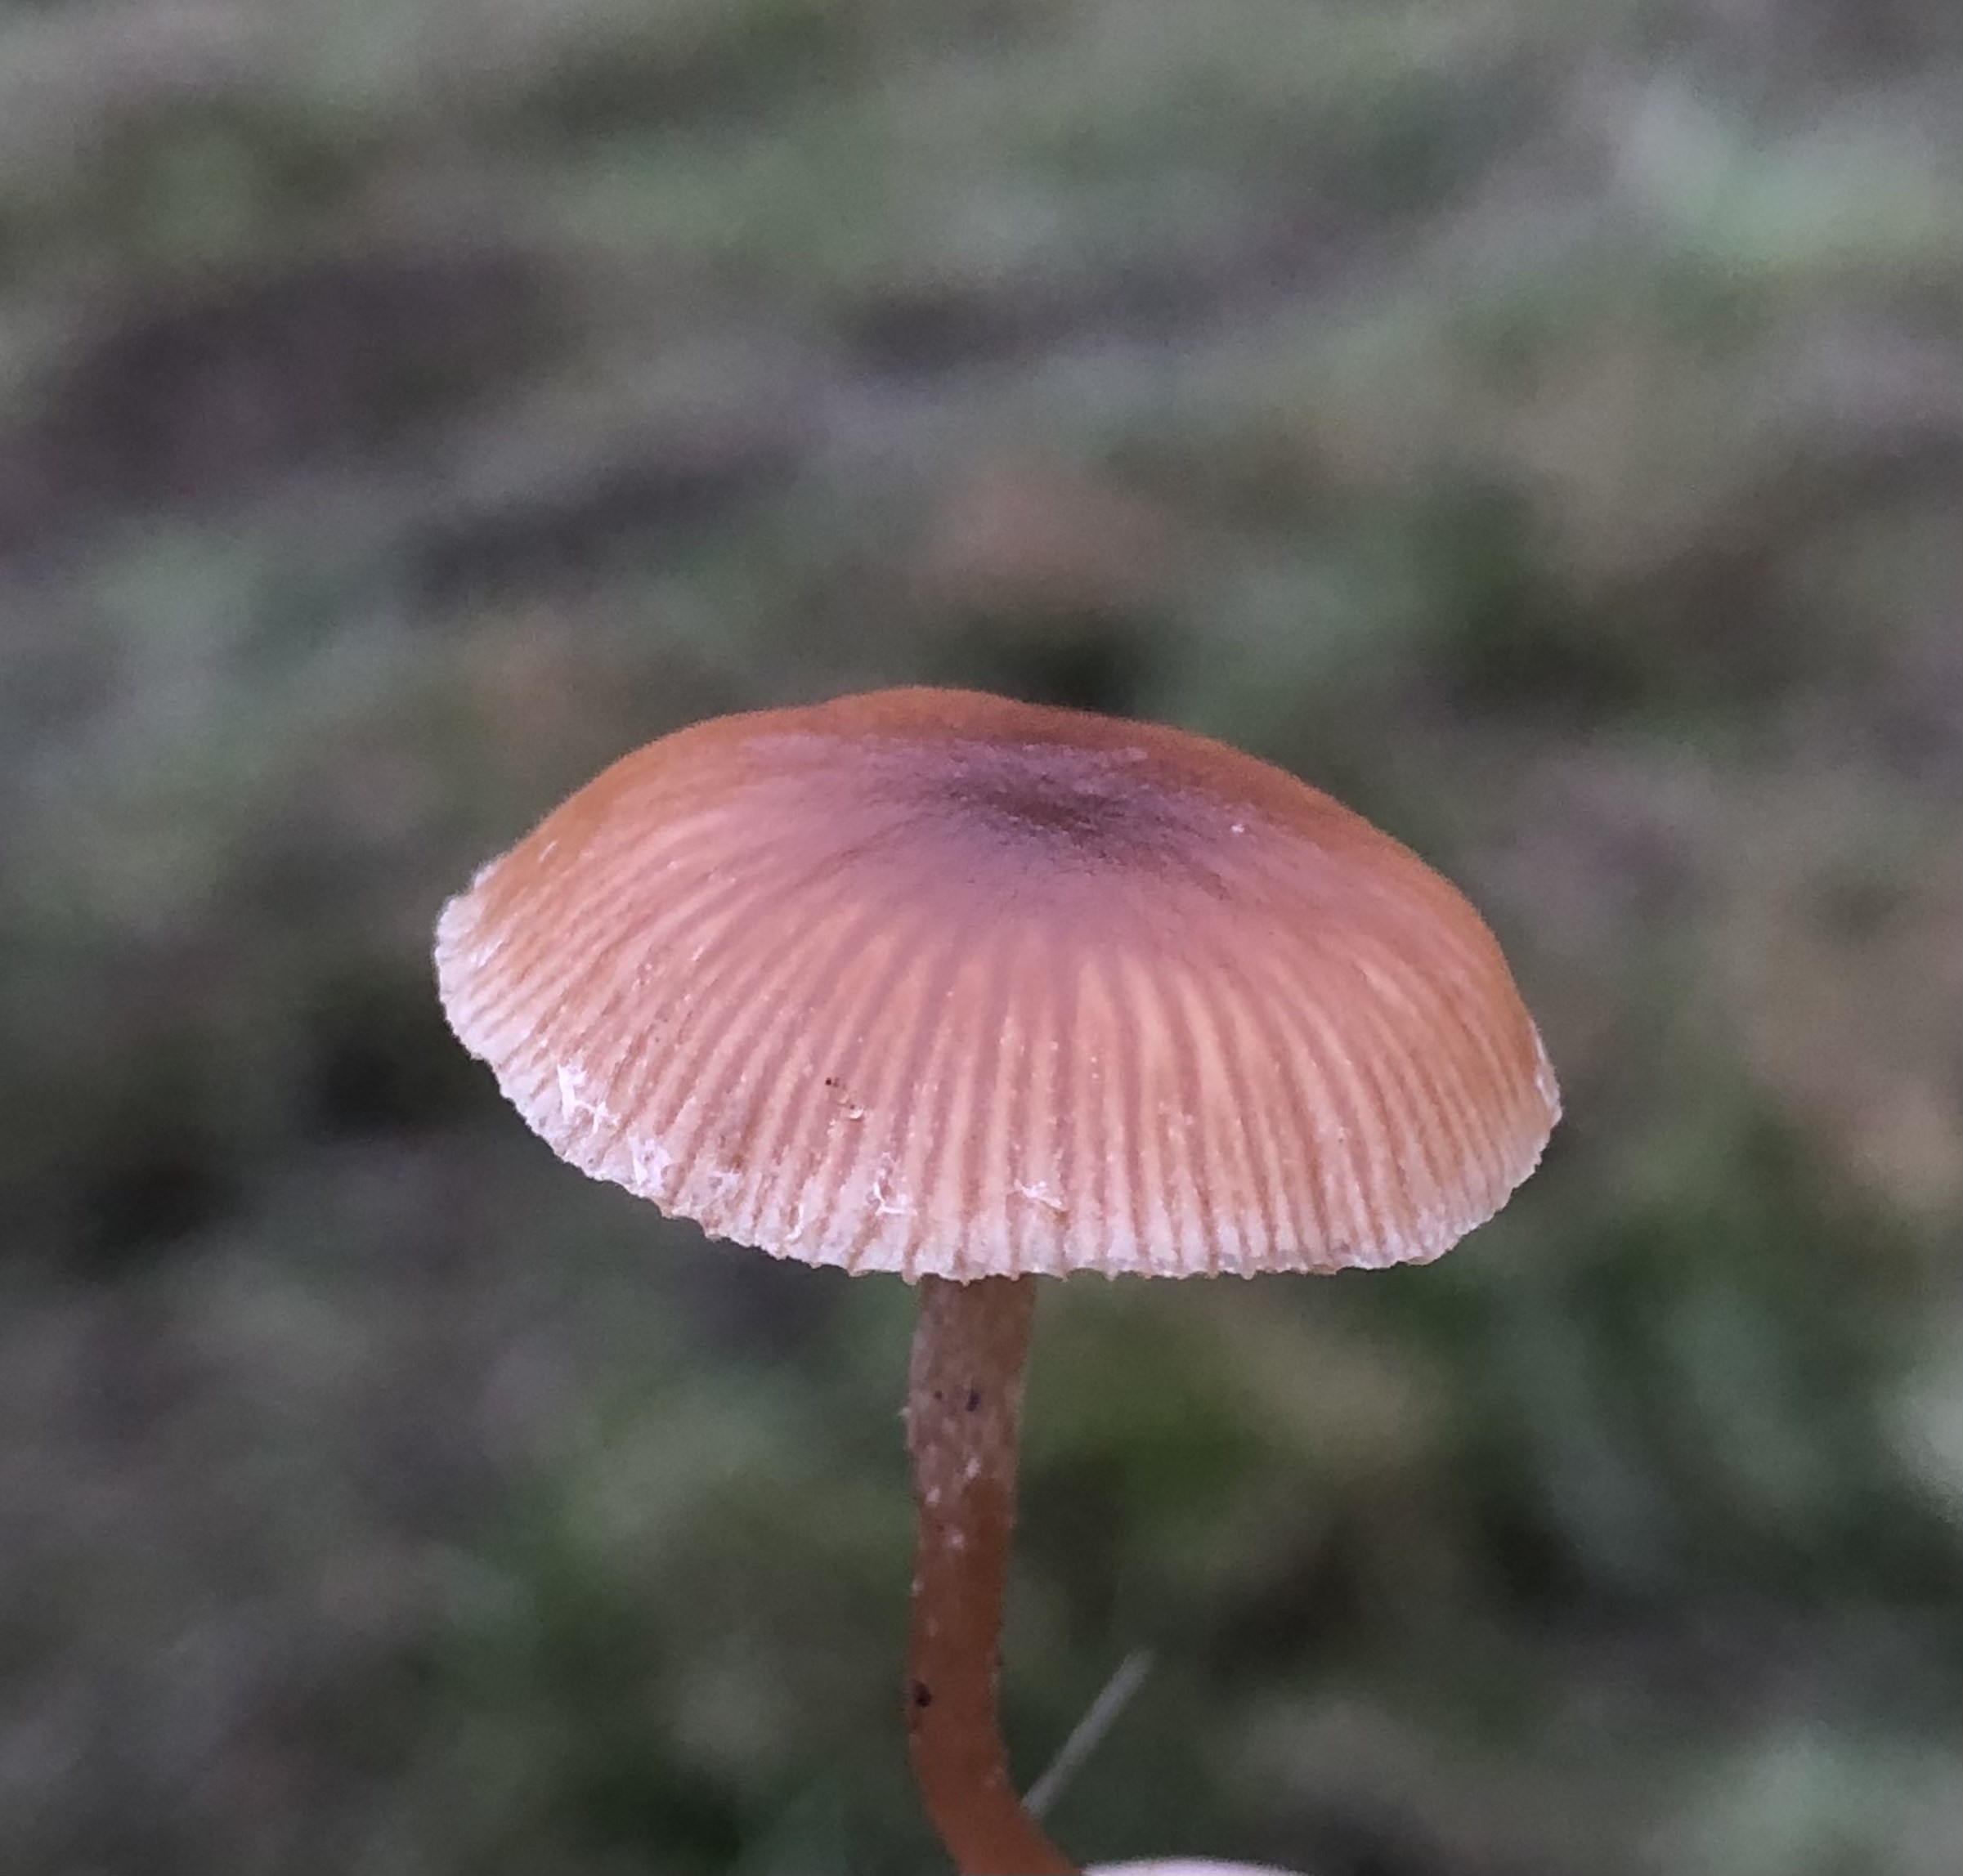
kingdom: Fungi
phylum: Basidiomycota
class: Agaricomycetes
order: Agaricales
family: Tubariaceae
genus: Tubaria
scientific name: Tubaria furfuracea
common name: kliddet fnughat
